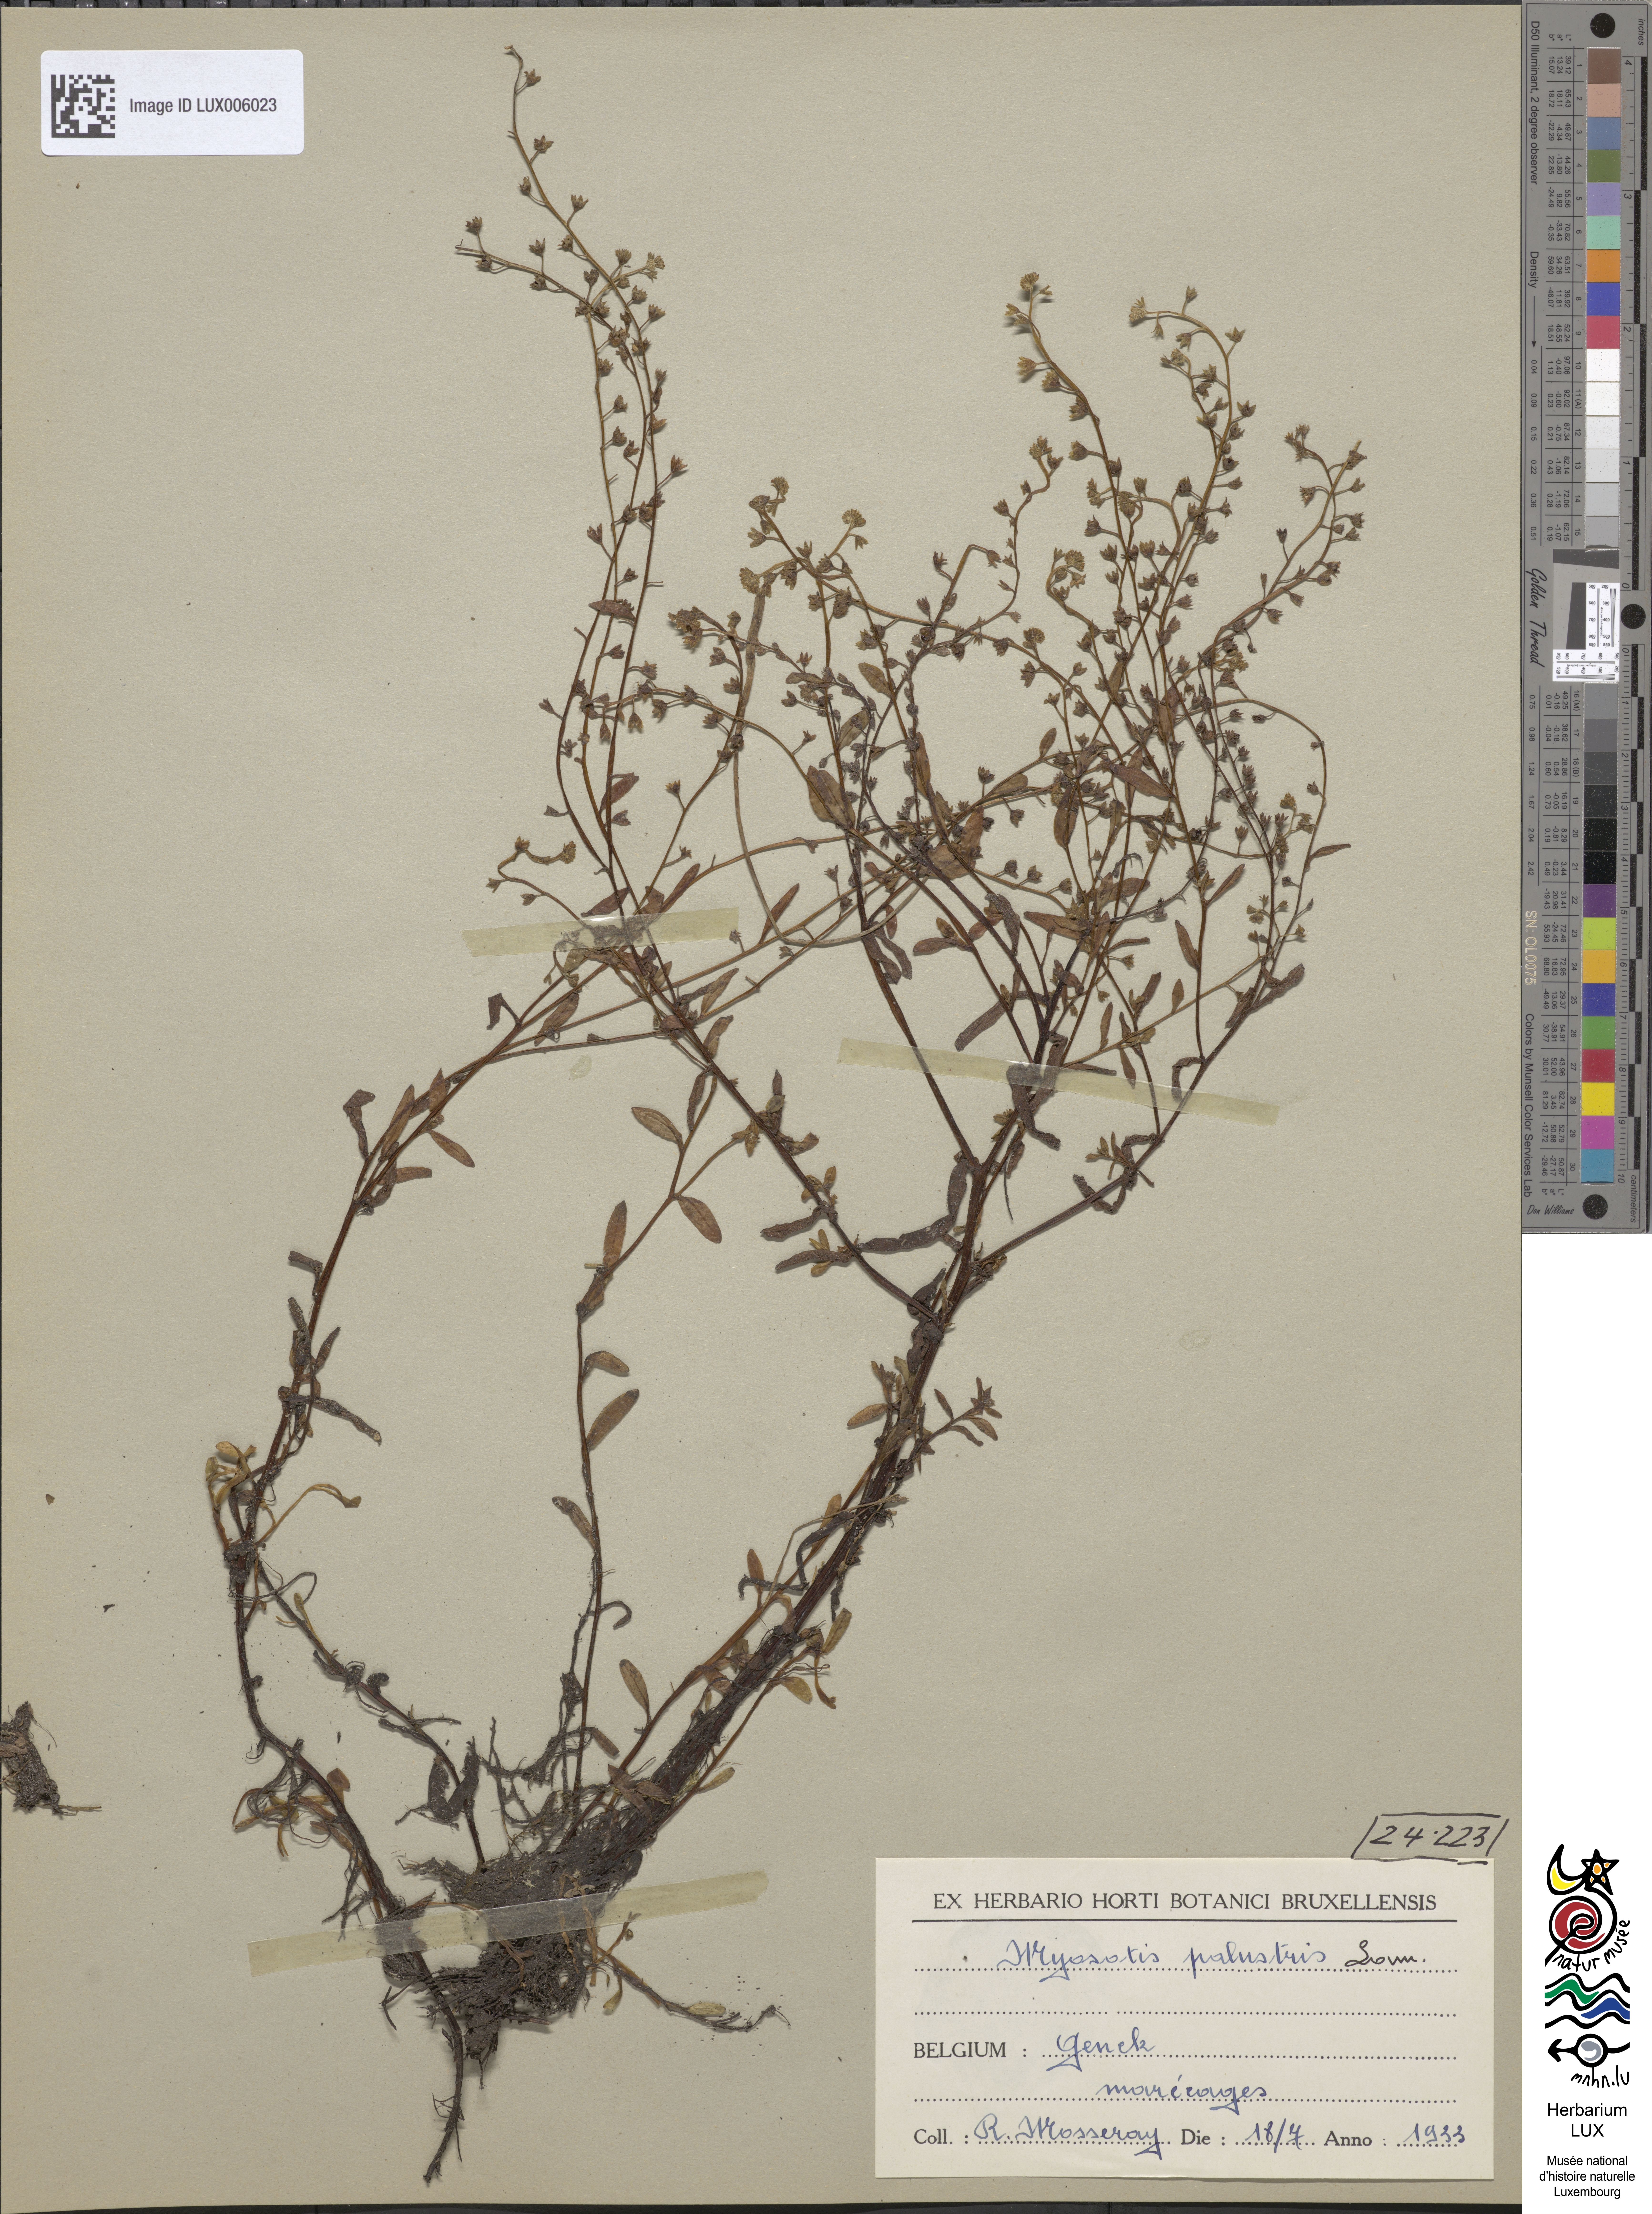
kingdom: Plantae
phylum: Tracheophyta
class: Magnoliopsida
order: Boraginales
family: Boraginaceae
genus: Myosotis
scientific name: Myosotis scorpioides
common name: Water forget-me-not
